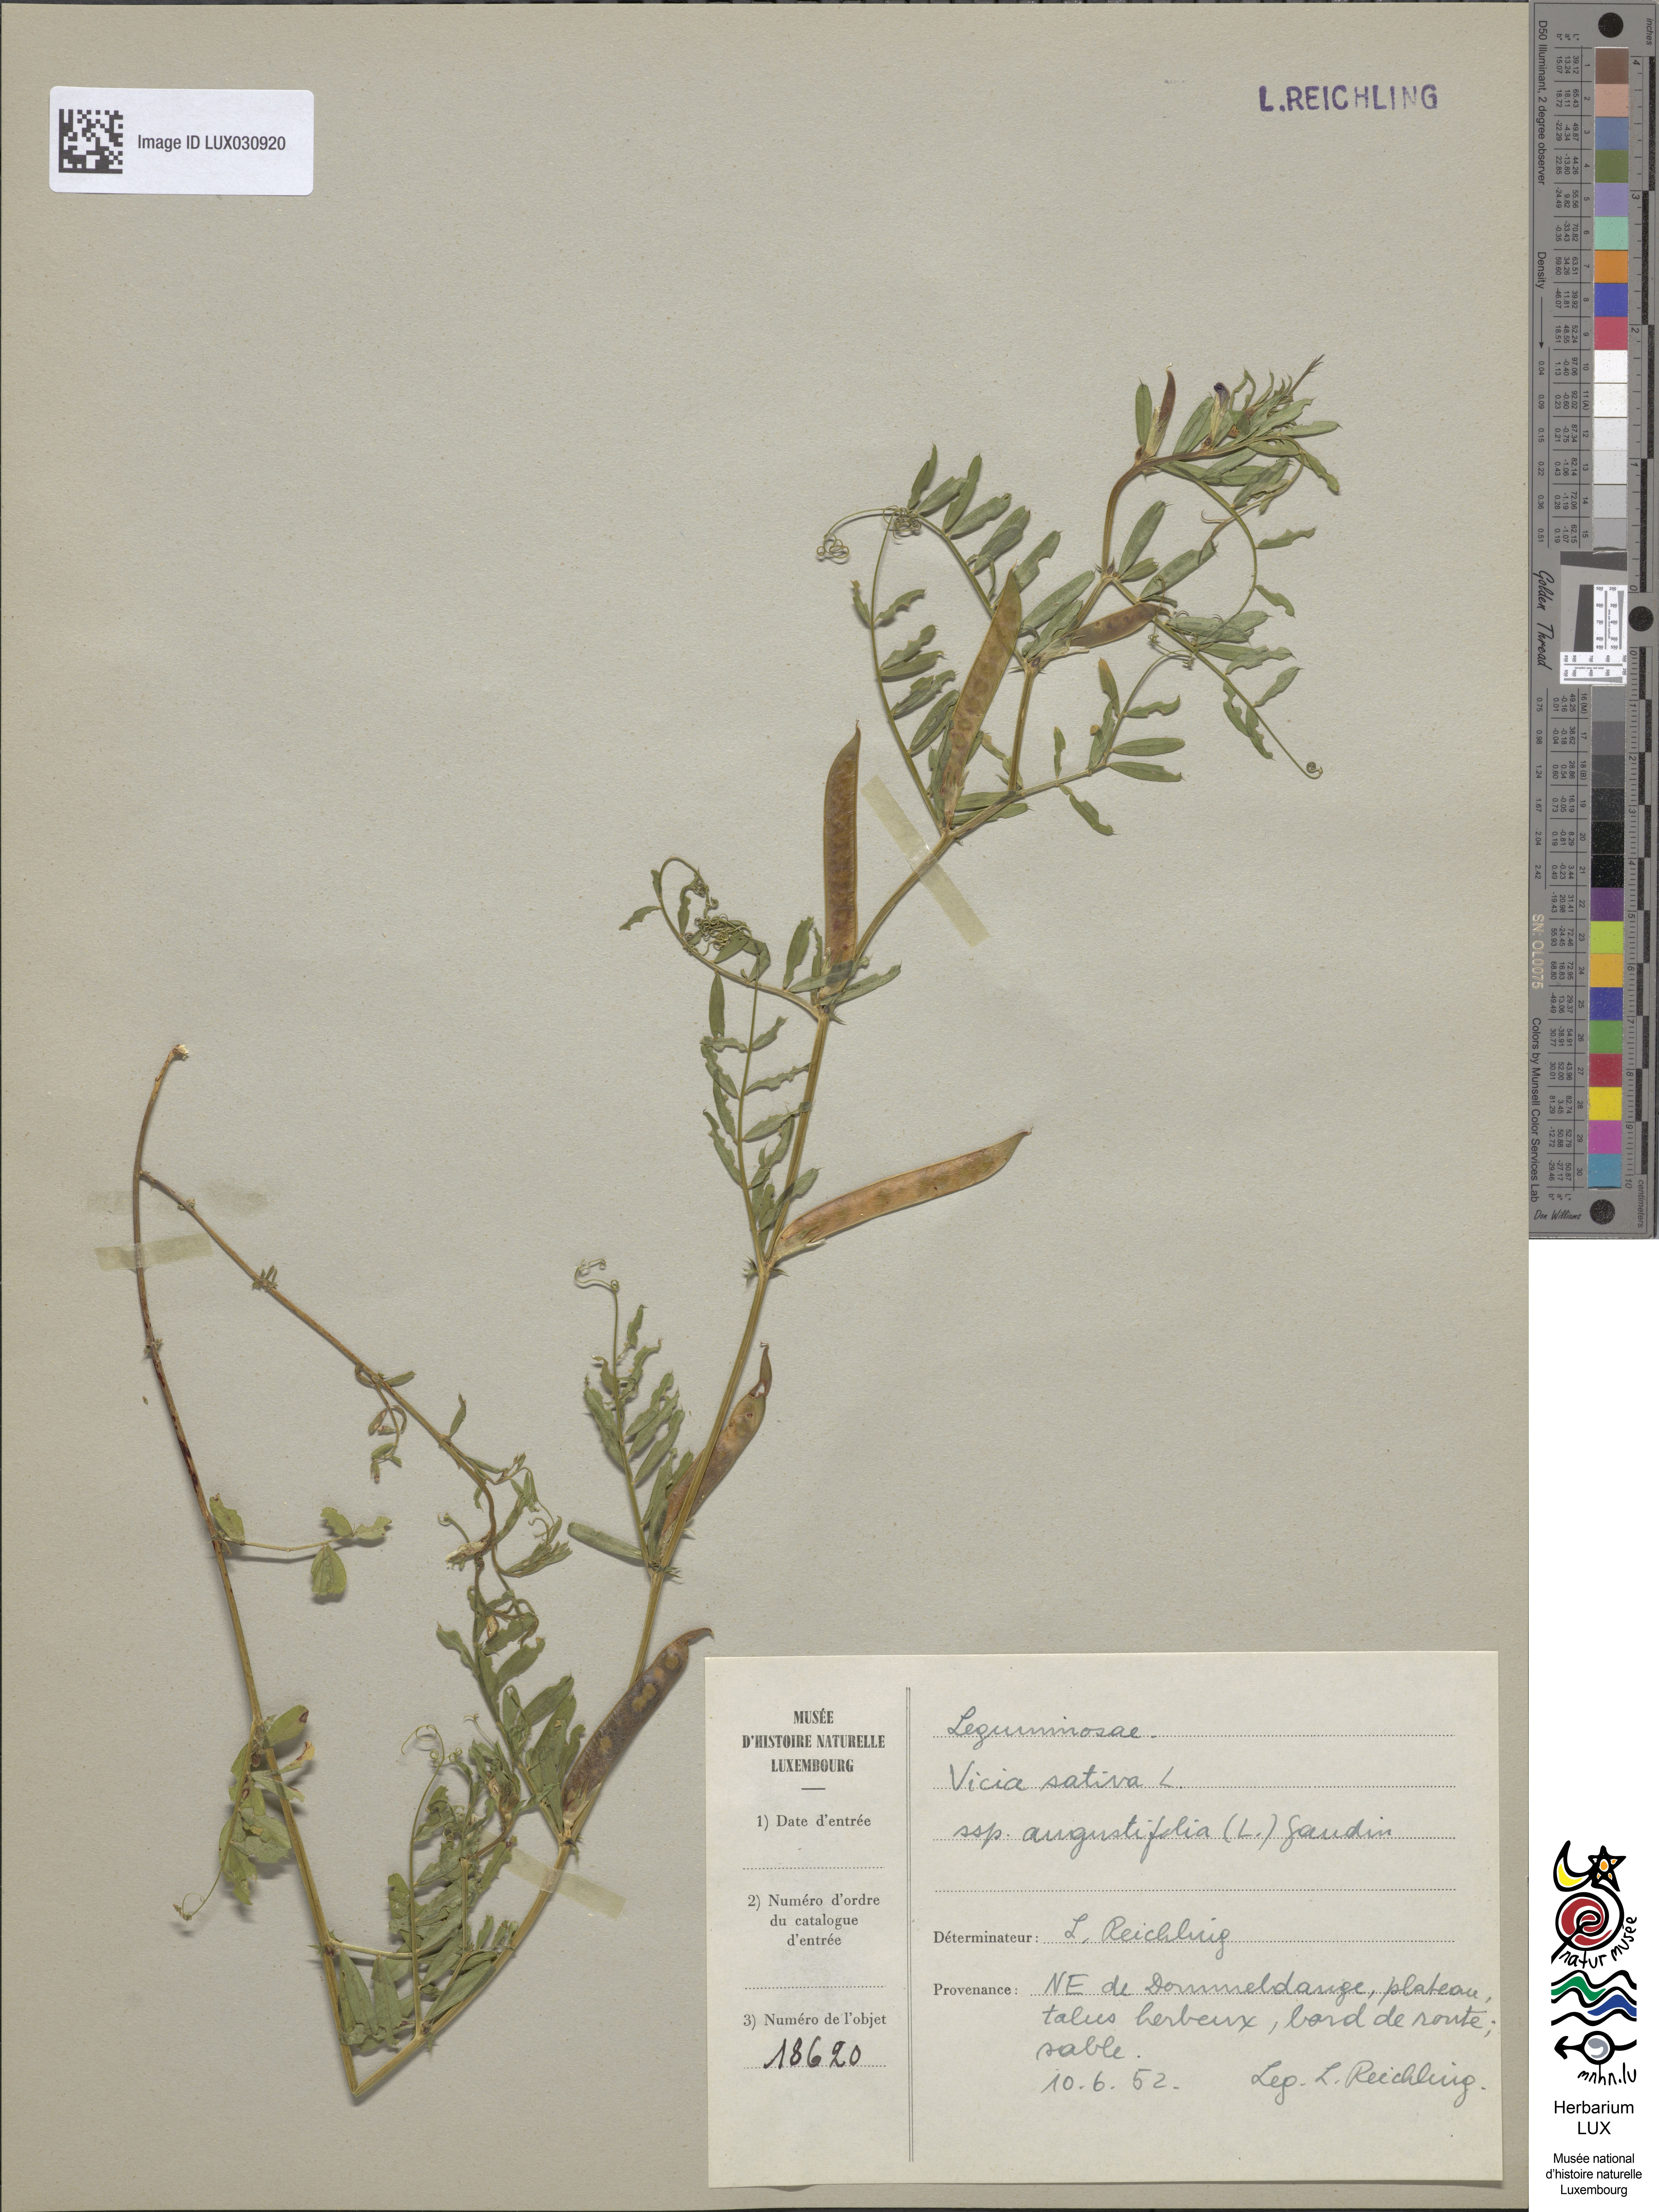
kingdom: Plantae
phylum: Tracheophyta
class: Magnoliopsida
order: Fabales
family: Fabaceae
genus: Vicia
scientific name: Vicia sativa
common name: Garden vetch
